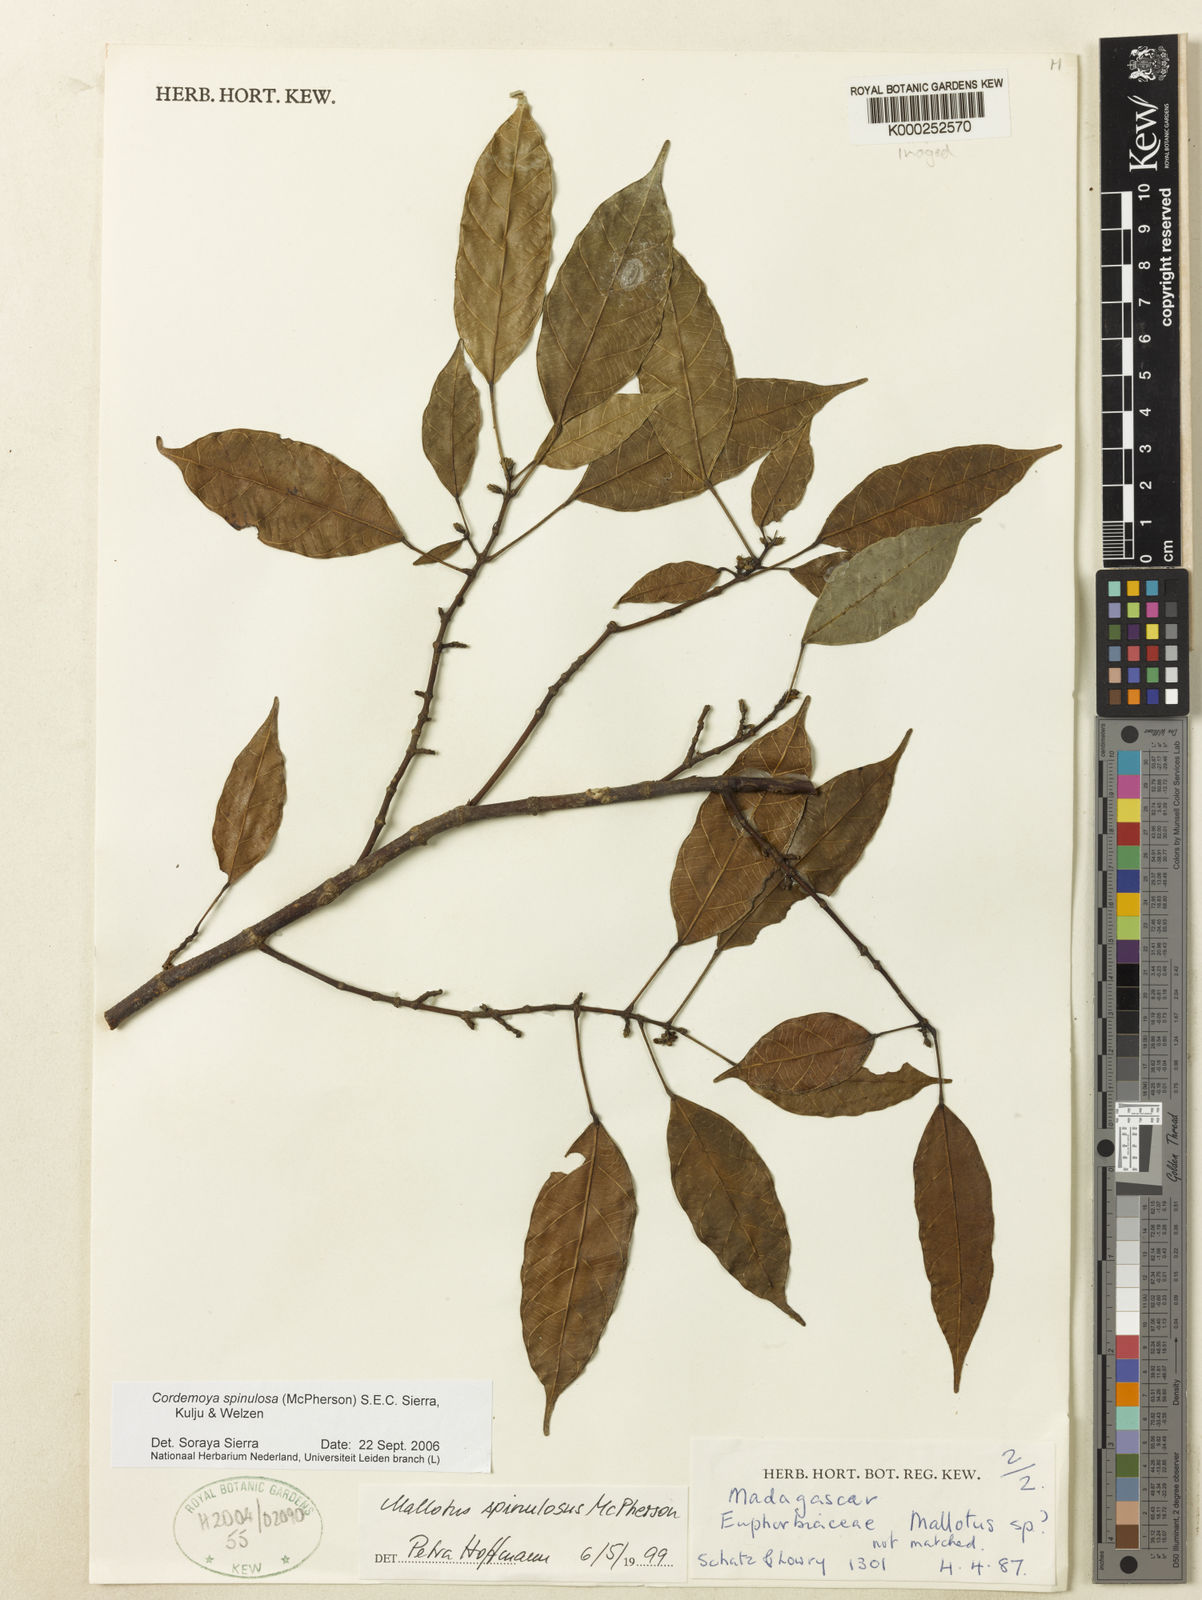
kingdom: Plantae
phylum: Tracheophyta
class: Magnoliopsida
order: Malpighiales
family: Euphorbiaceae
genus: Hancea
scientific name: Hancea spinulosa
